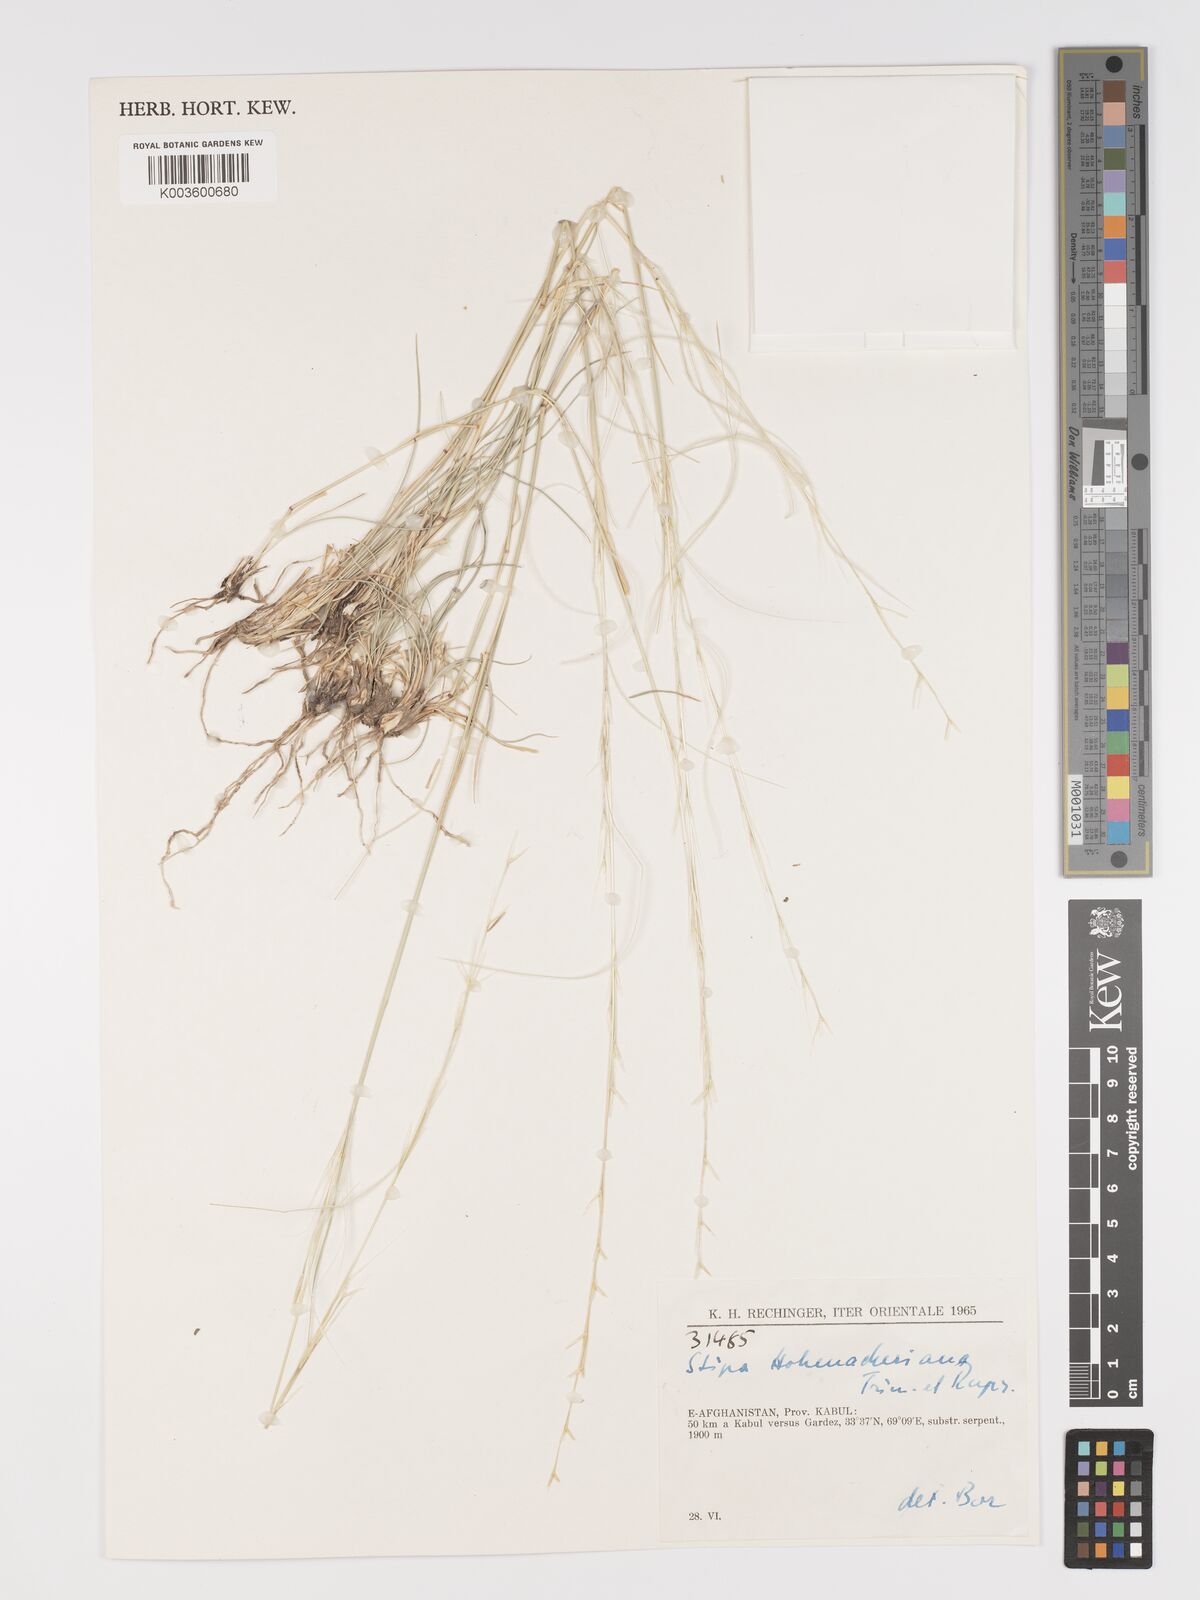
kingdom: Plantae
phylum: Tracheophyta
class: Liliopsida
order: Poales
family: Poaceae
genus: Stipa
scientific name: Stipa hohenackeriana
